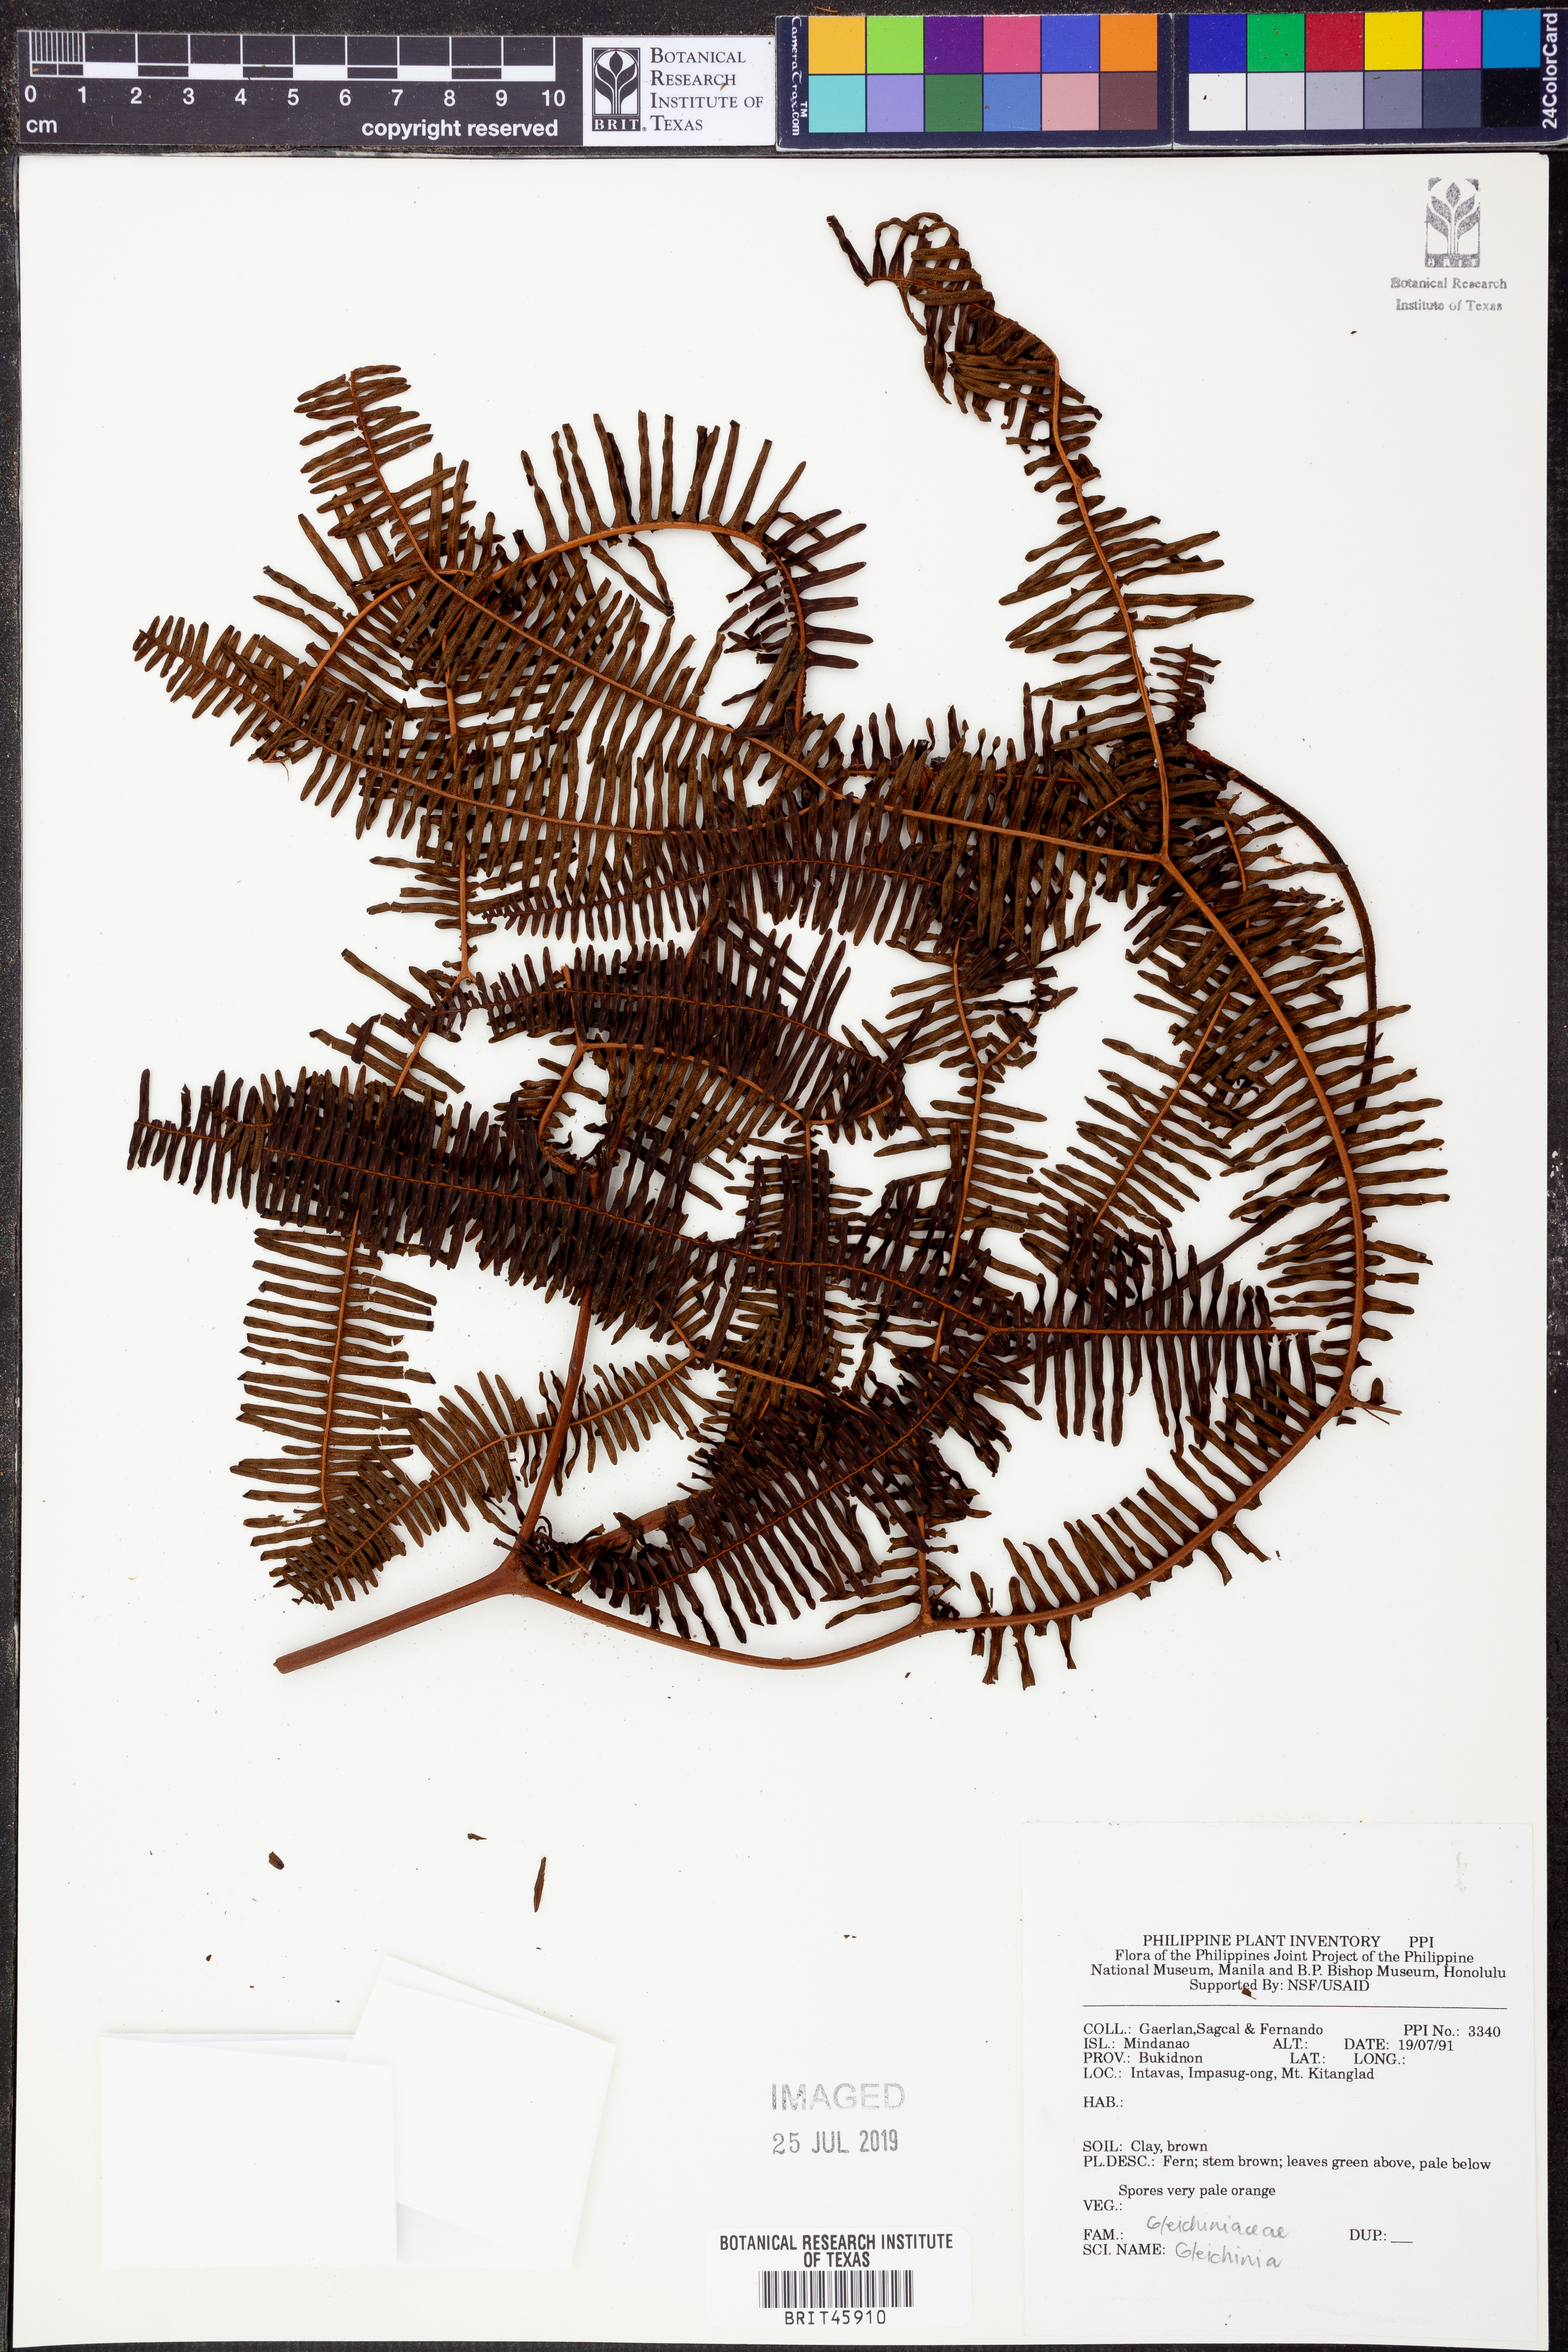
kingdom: Plantae
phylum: Tracheophyta
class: Polypodiopsida
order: Gleicheniales
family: Gleicheniaceae
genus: Gleichenia
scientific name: Gleichenia
